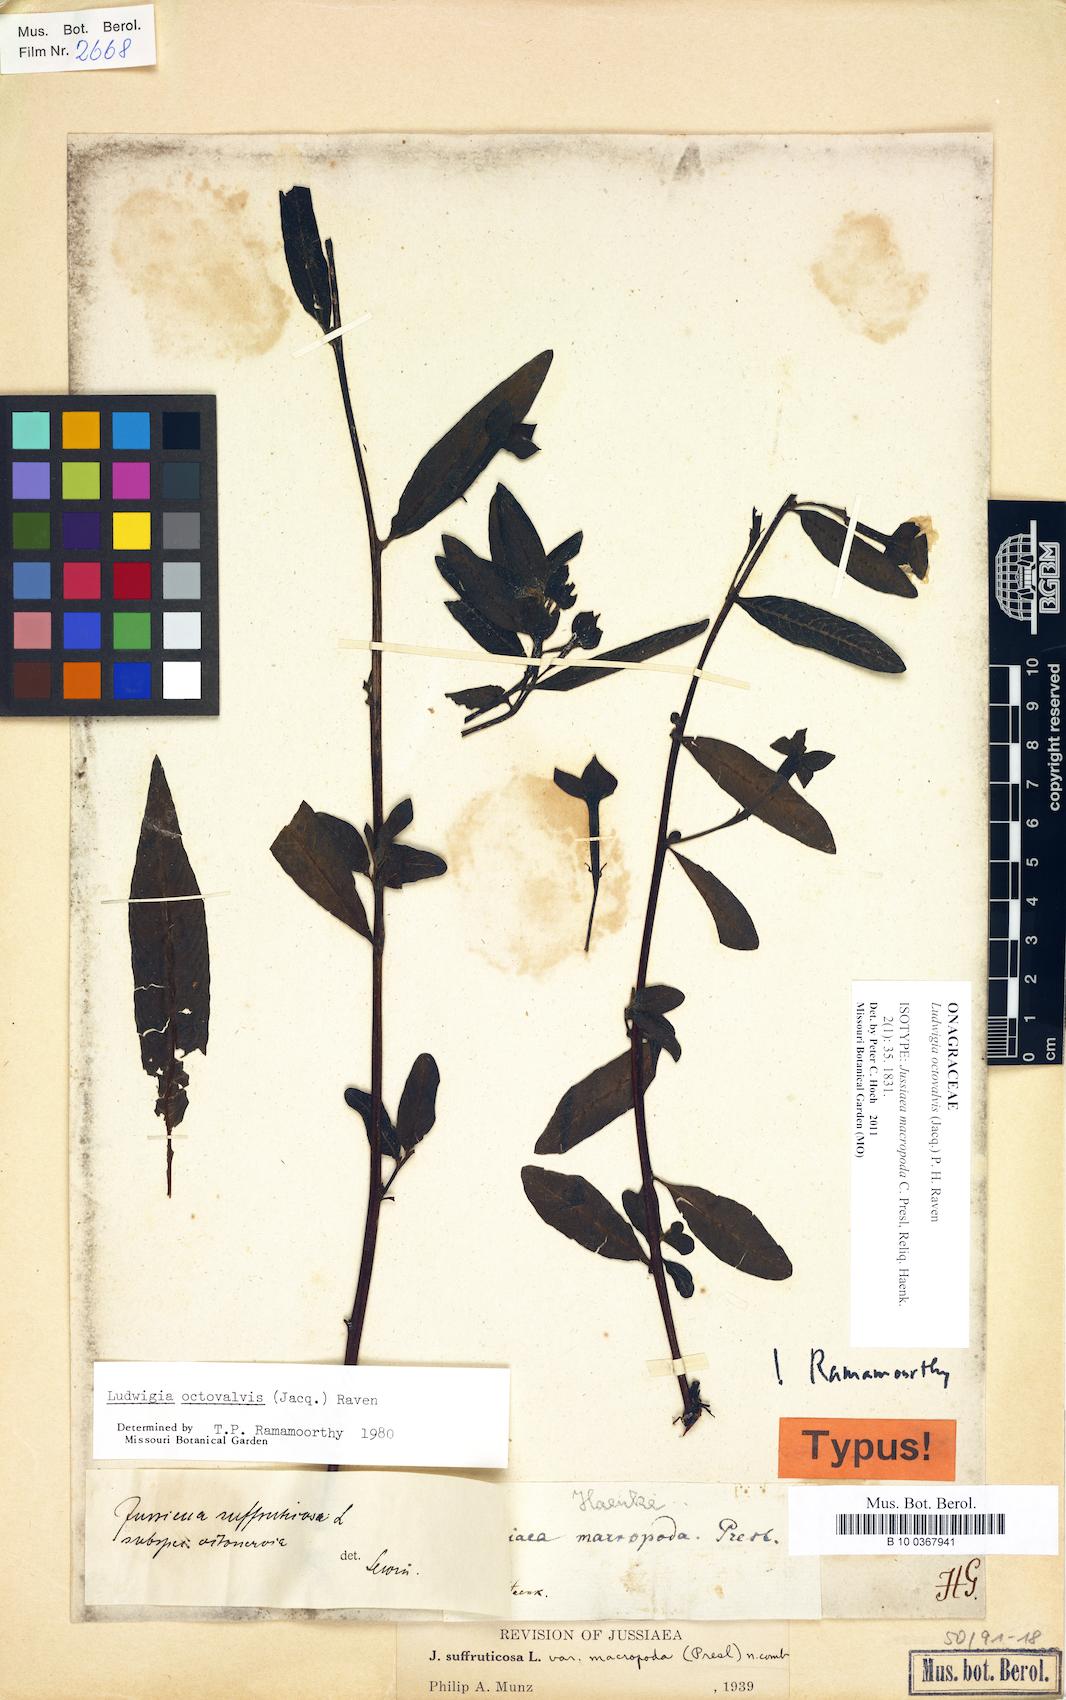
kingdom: Plantae
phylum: Tracheophyta
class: Magnoliopsida
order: Myrtales
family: Onagraceae
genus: Ludwigia
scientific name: Ludwigia octovalvis
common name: Water-primrose
